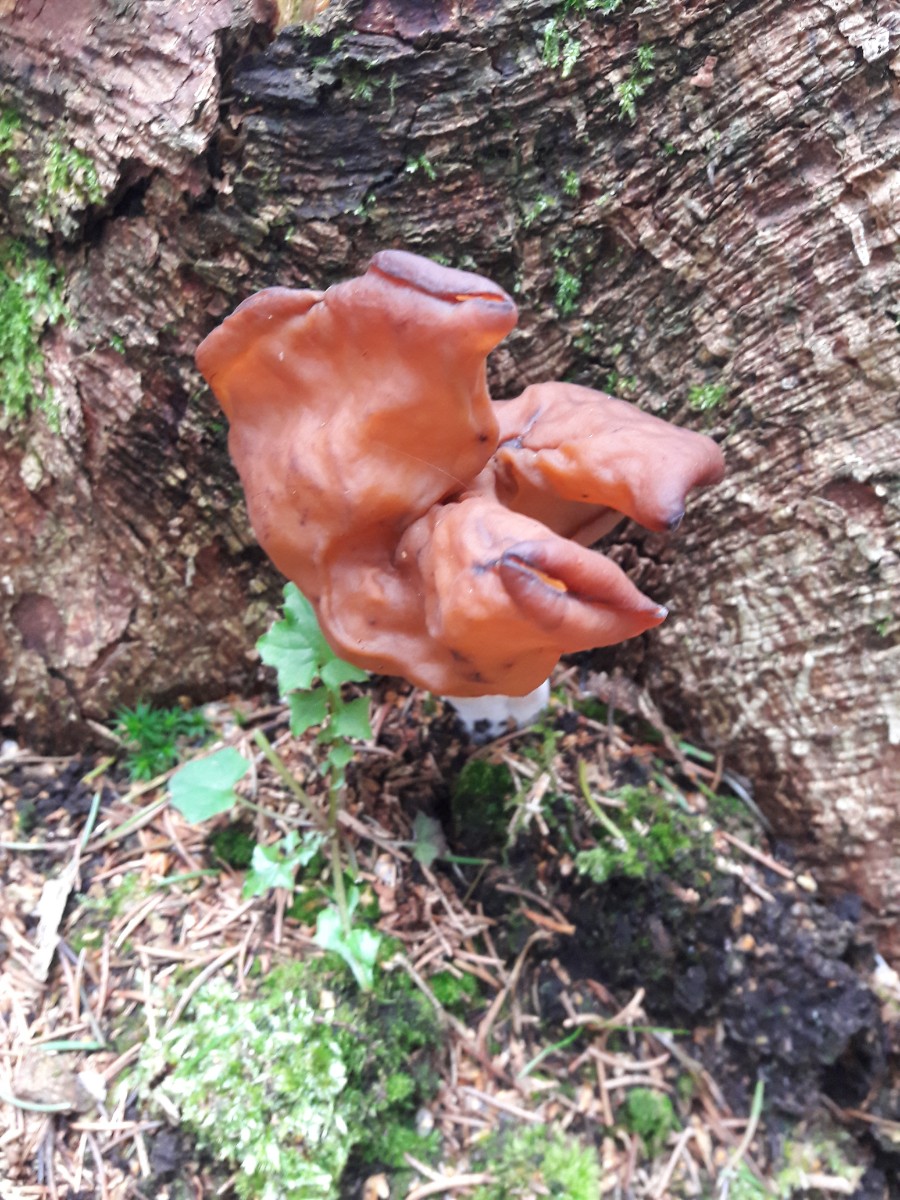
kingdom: Fungi
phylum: Ascomycota
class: Pezizomycetes
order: Pezizales
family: Discinaceae
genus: Gyromitra
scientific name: Gyromitra infula
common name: bispehue-stenmorkel
